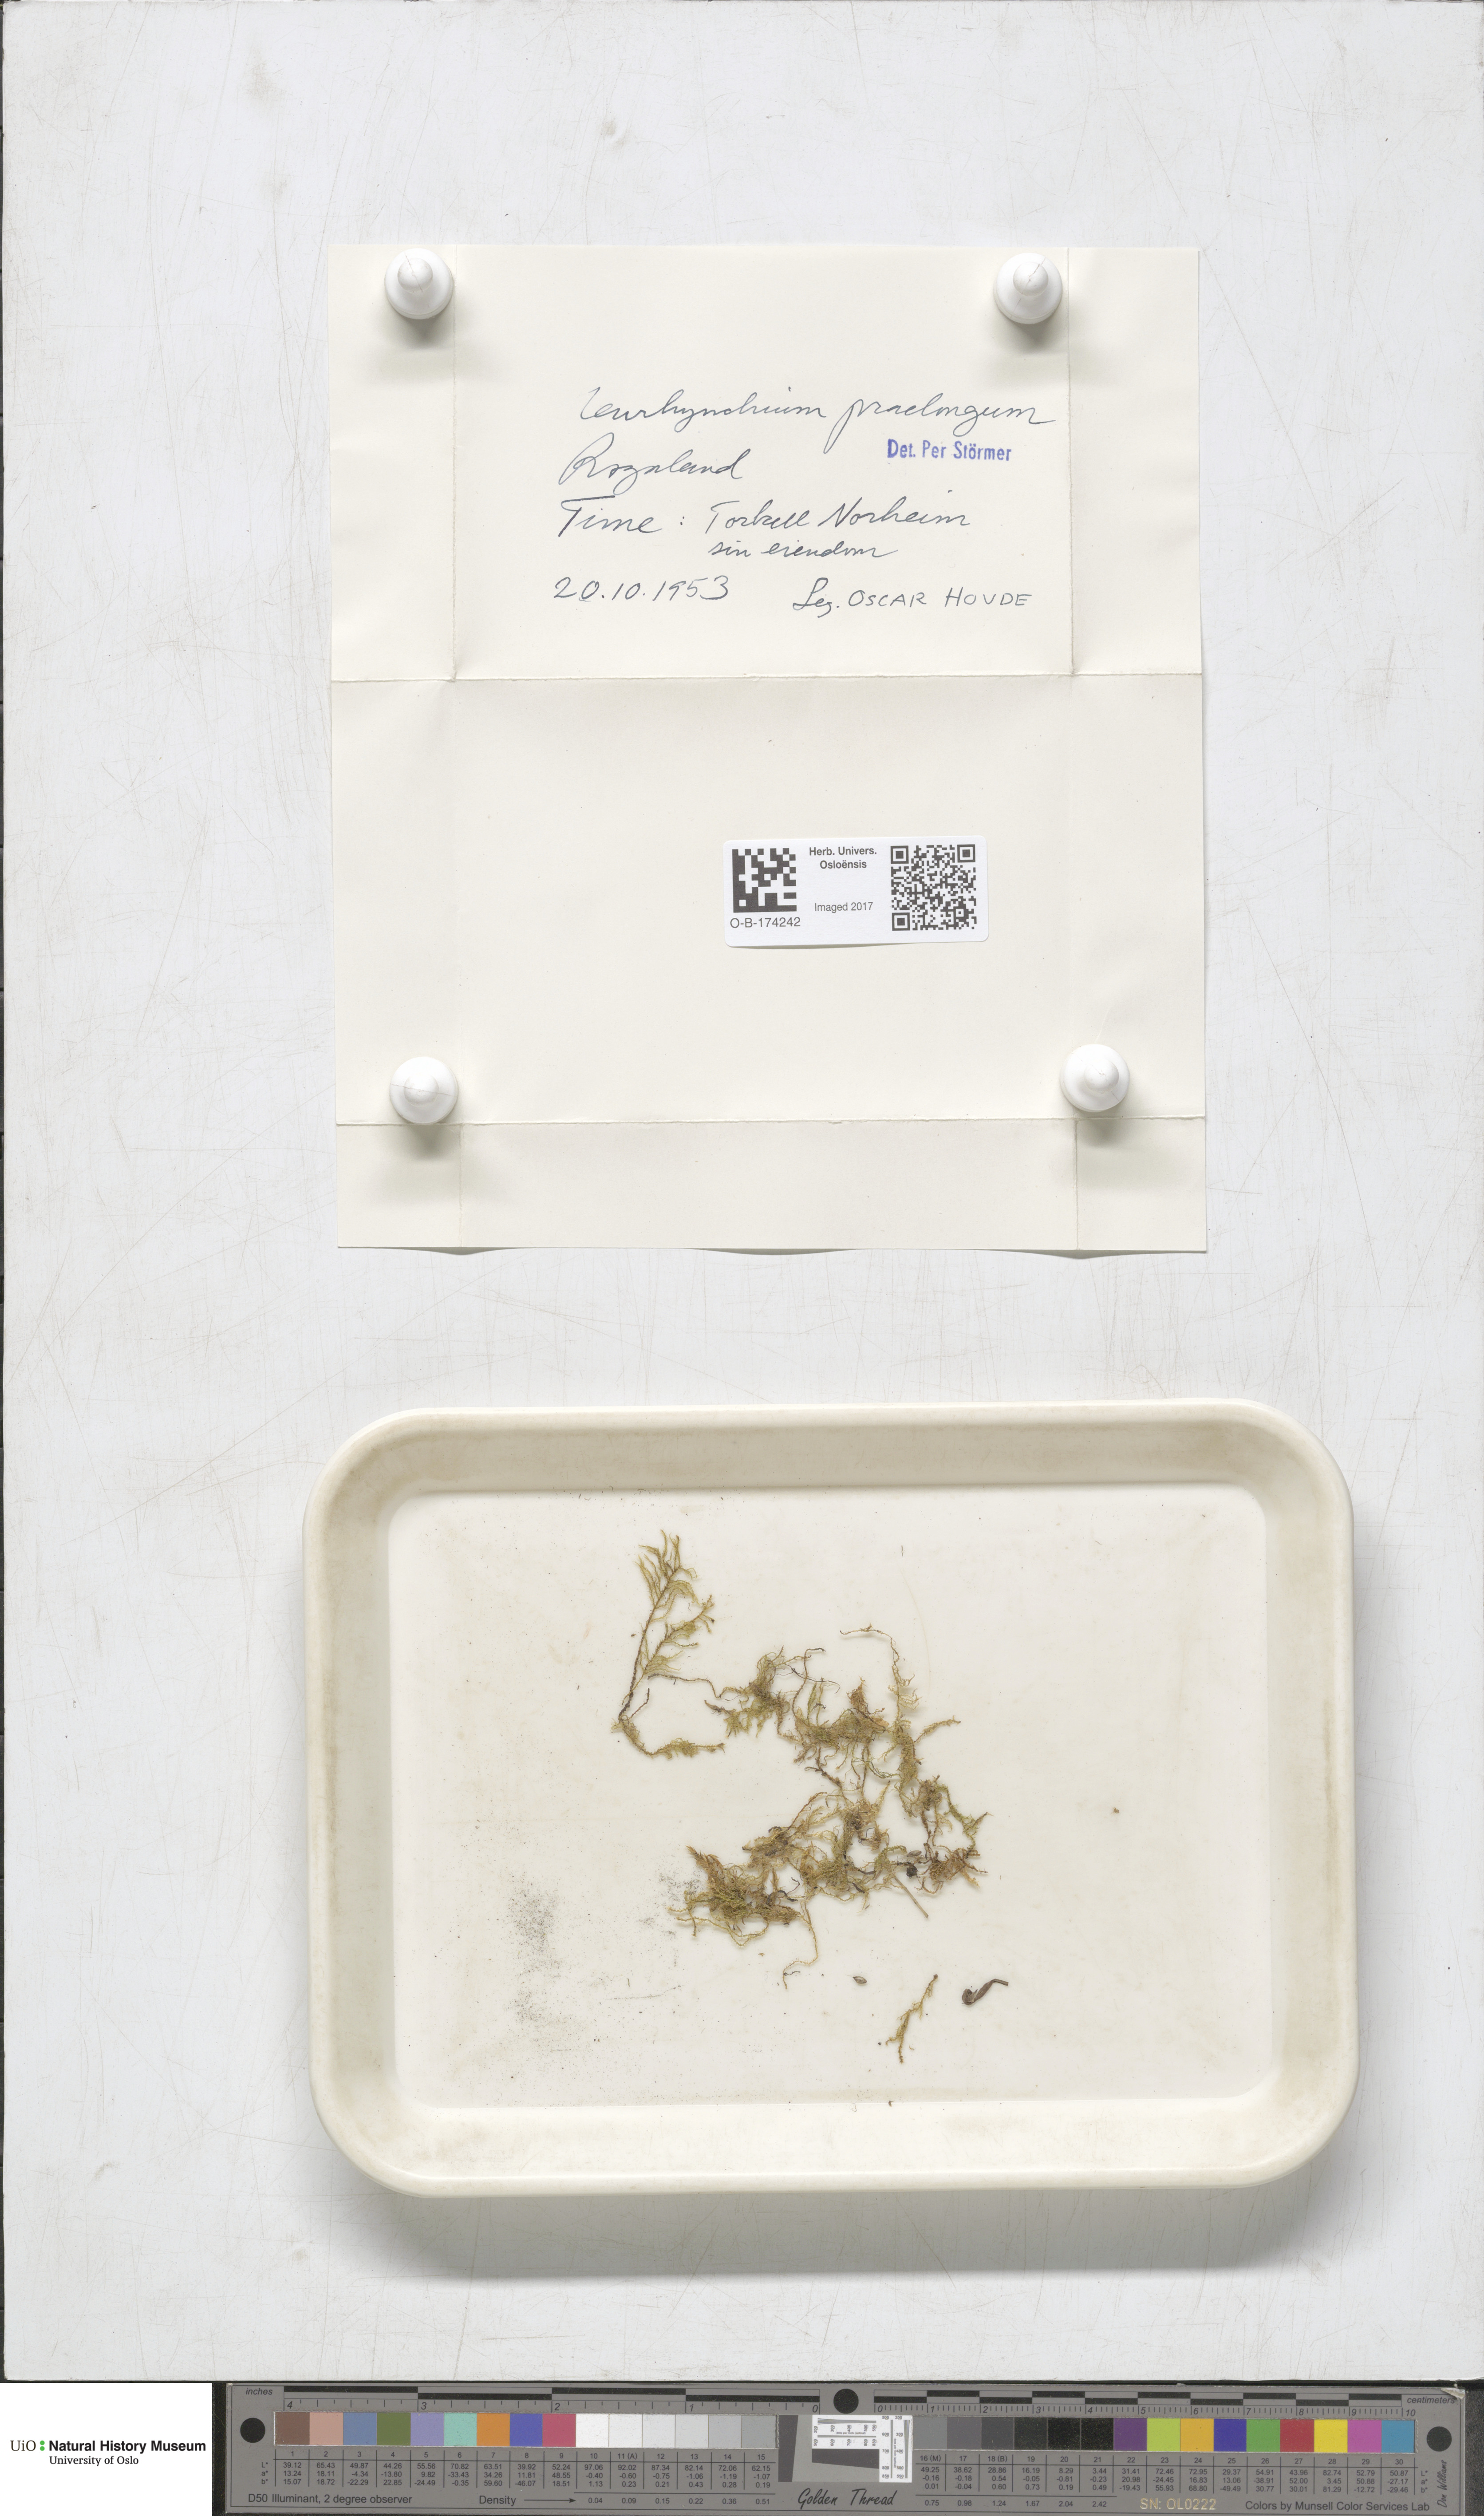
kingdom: Plantae
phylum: Bryophyta
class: Bryopsida
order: Hypnales
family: Brachytheciaceae
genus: Kindbergia
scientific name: Kindbergia praelonga
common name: Slender beaked moss
